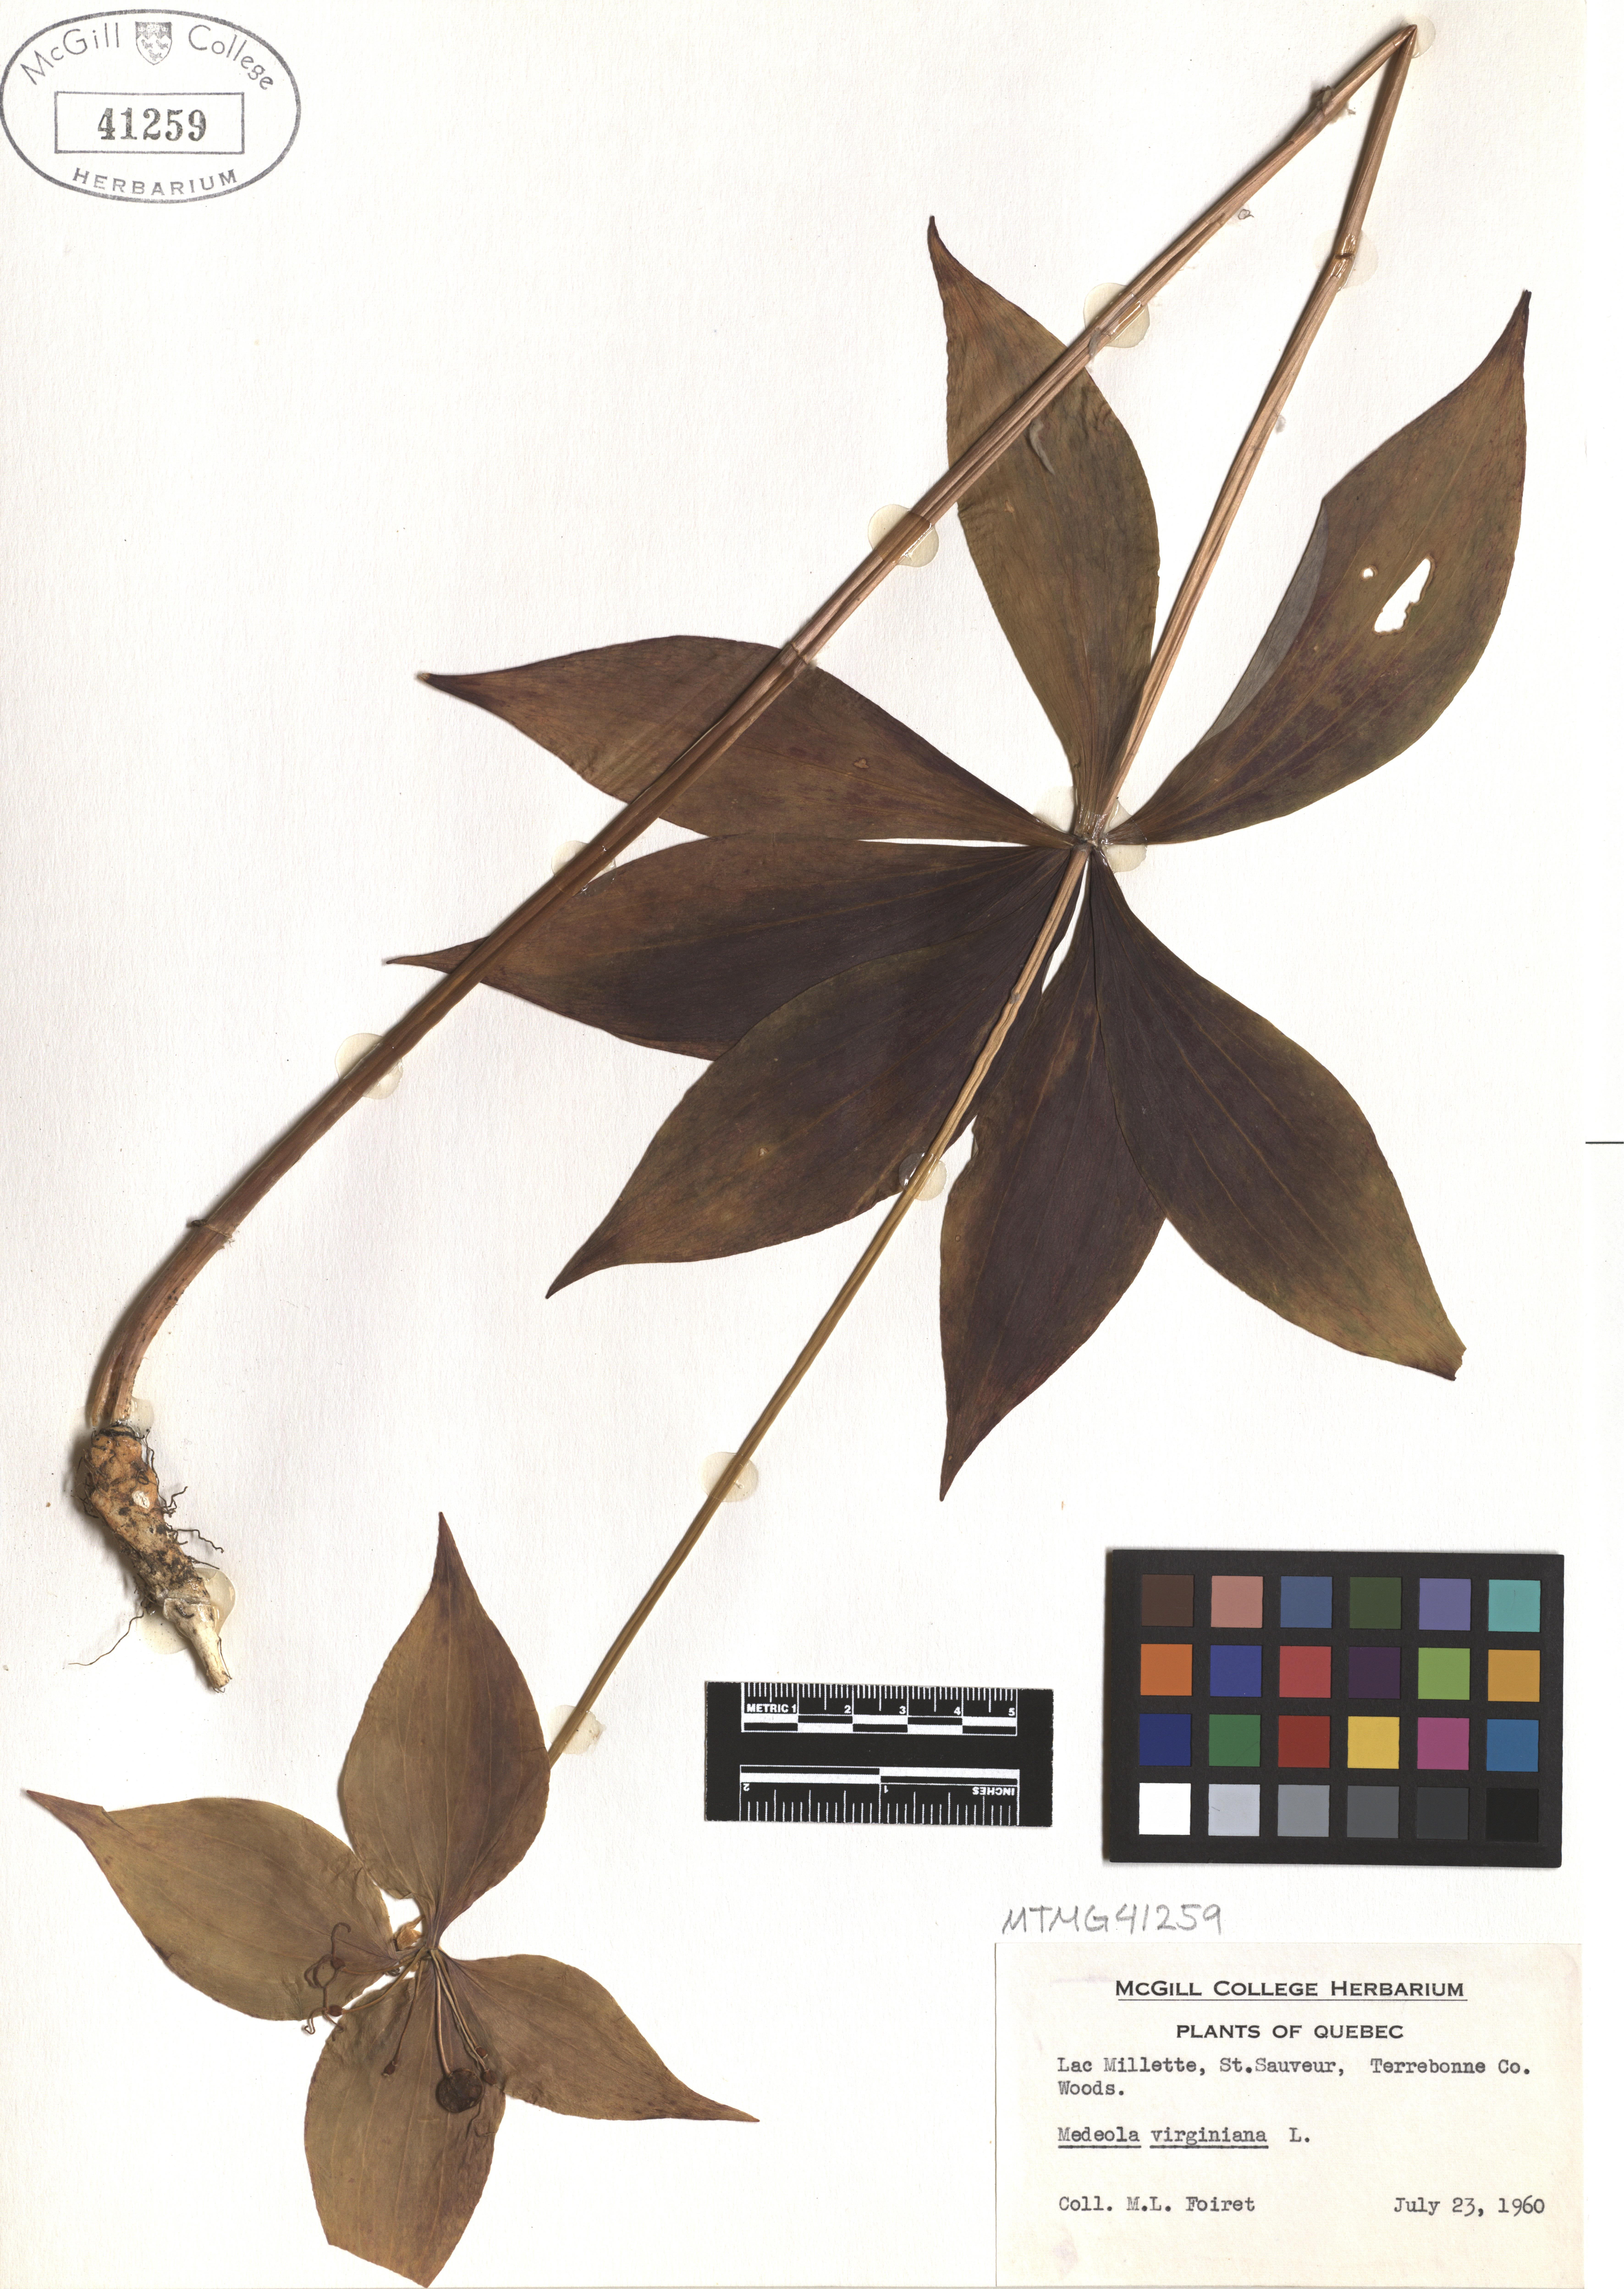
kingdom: Plantae
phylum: Tracheophyta
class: Liliopsida
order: Liliales
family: Liliaceae
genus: Medeola
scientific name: Medeola virginiana
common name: Indian cucumber-root
